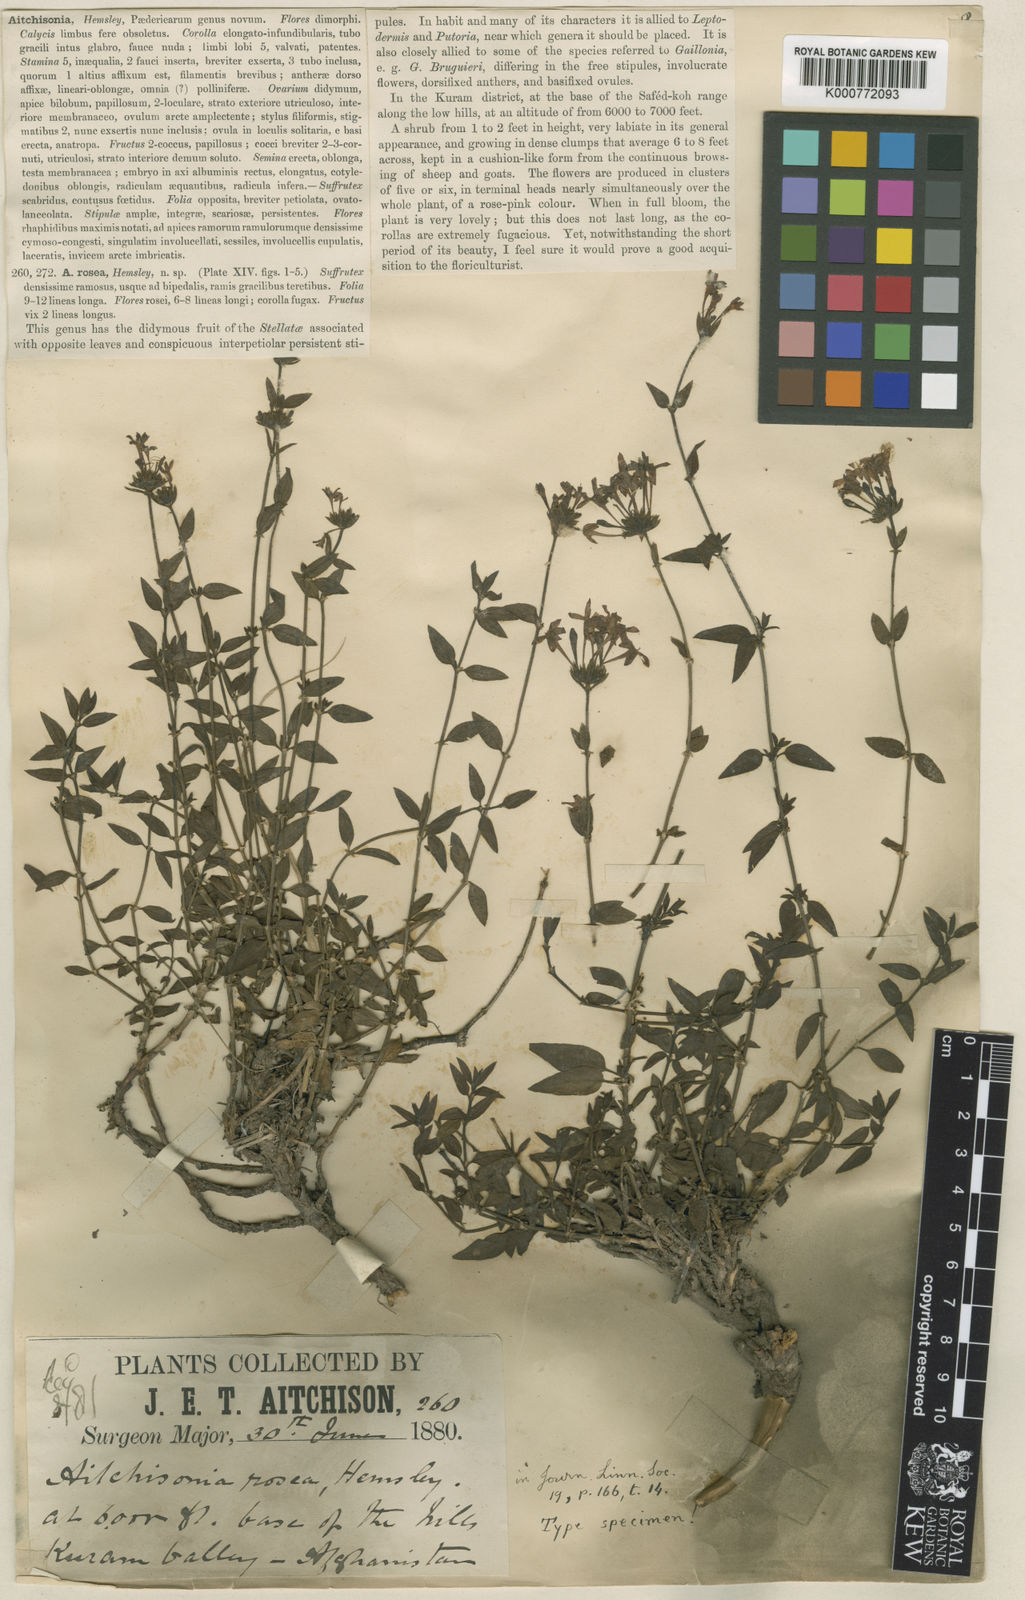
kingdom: Plantae
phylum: Tracheophyta
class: Magnoliopsida
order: Gentianales
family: Rubiaceae
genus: Aitchisonia
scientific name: Aitchisonia rosea
